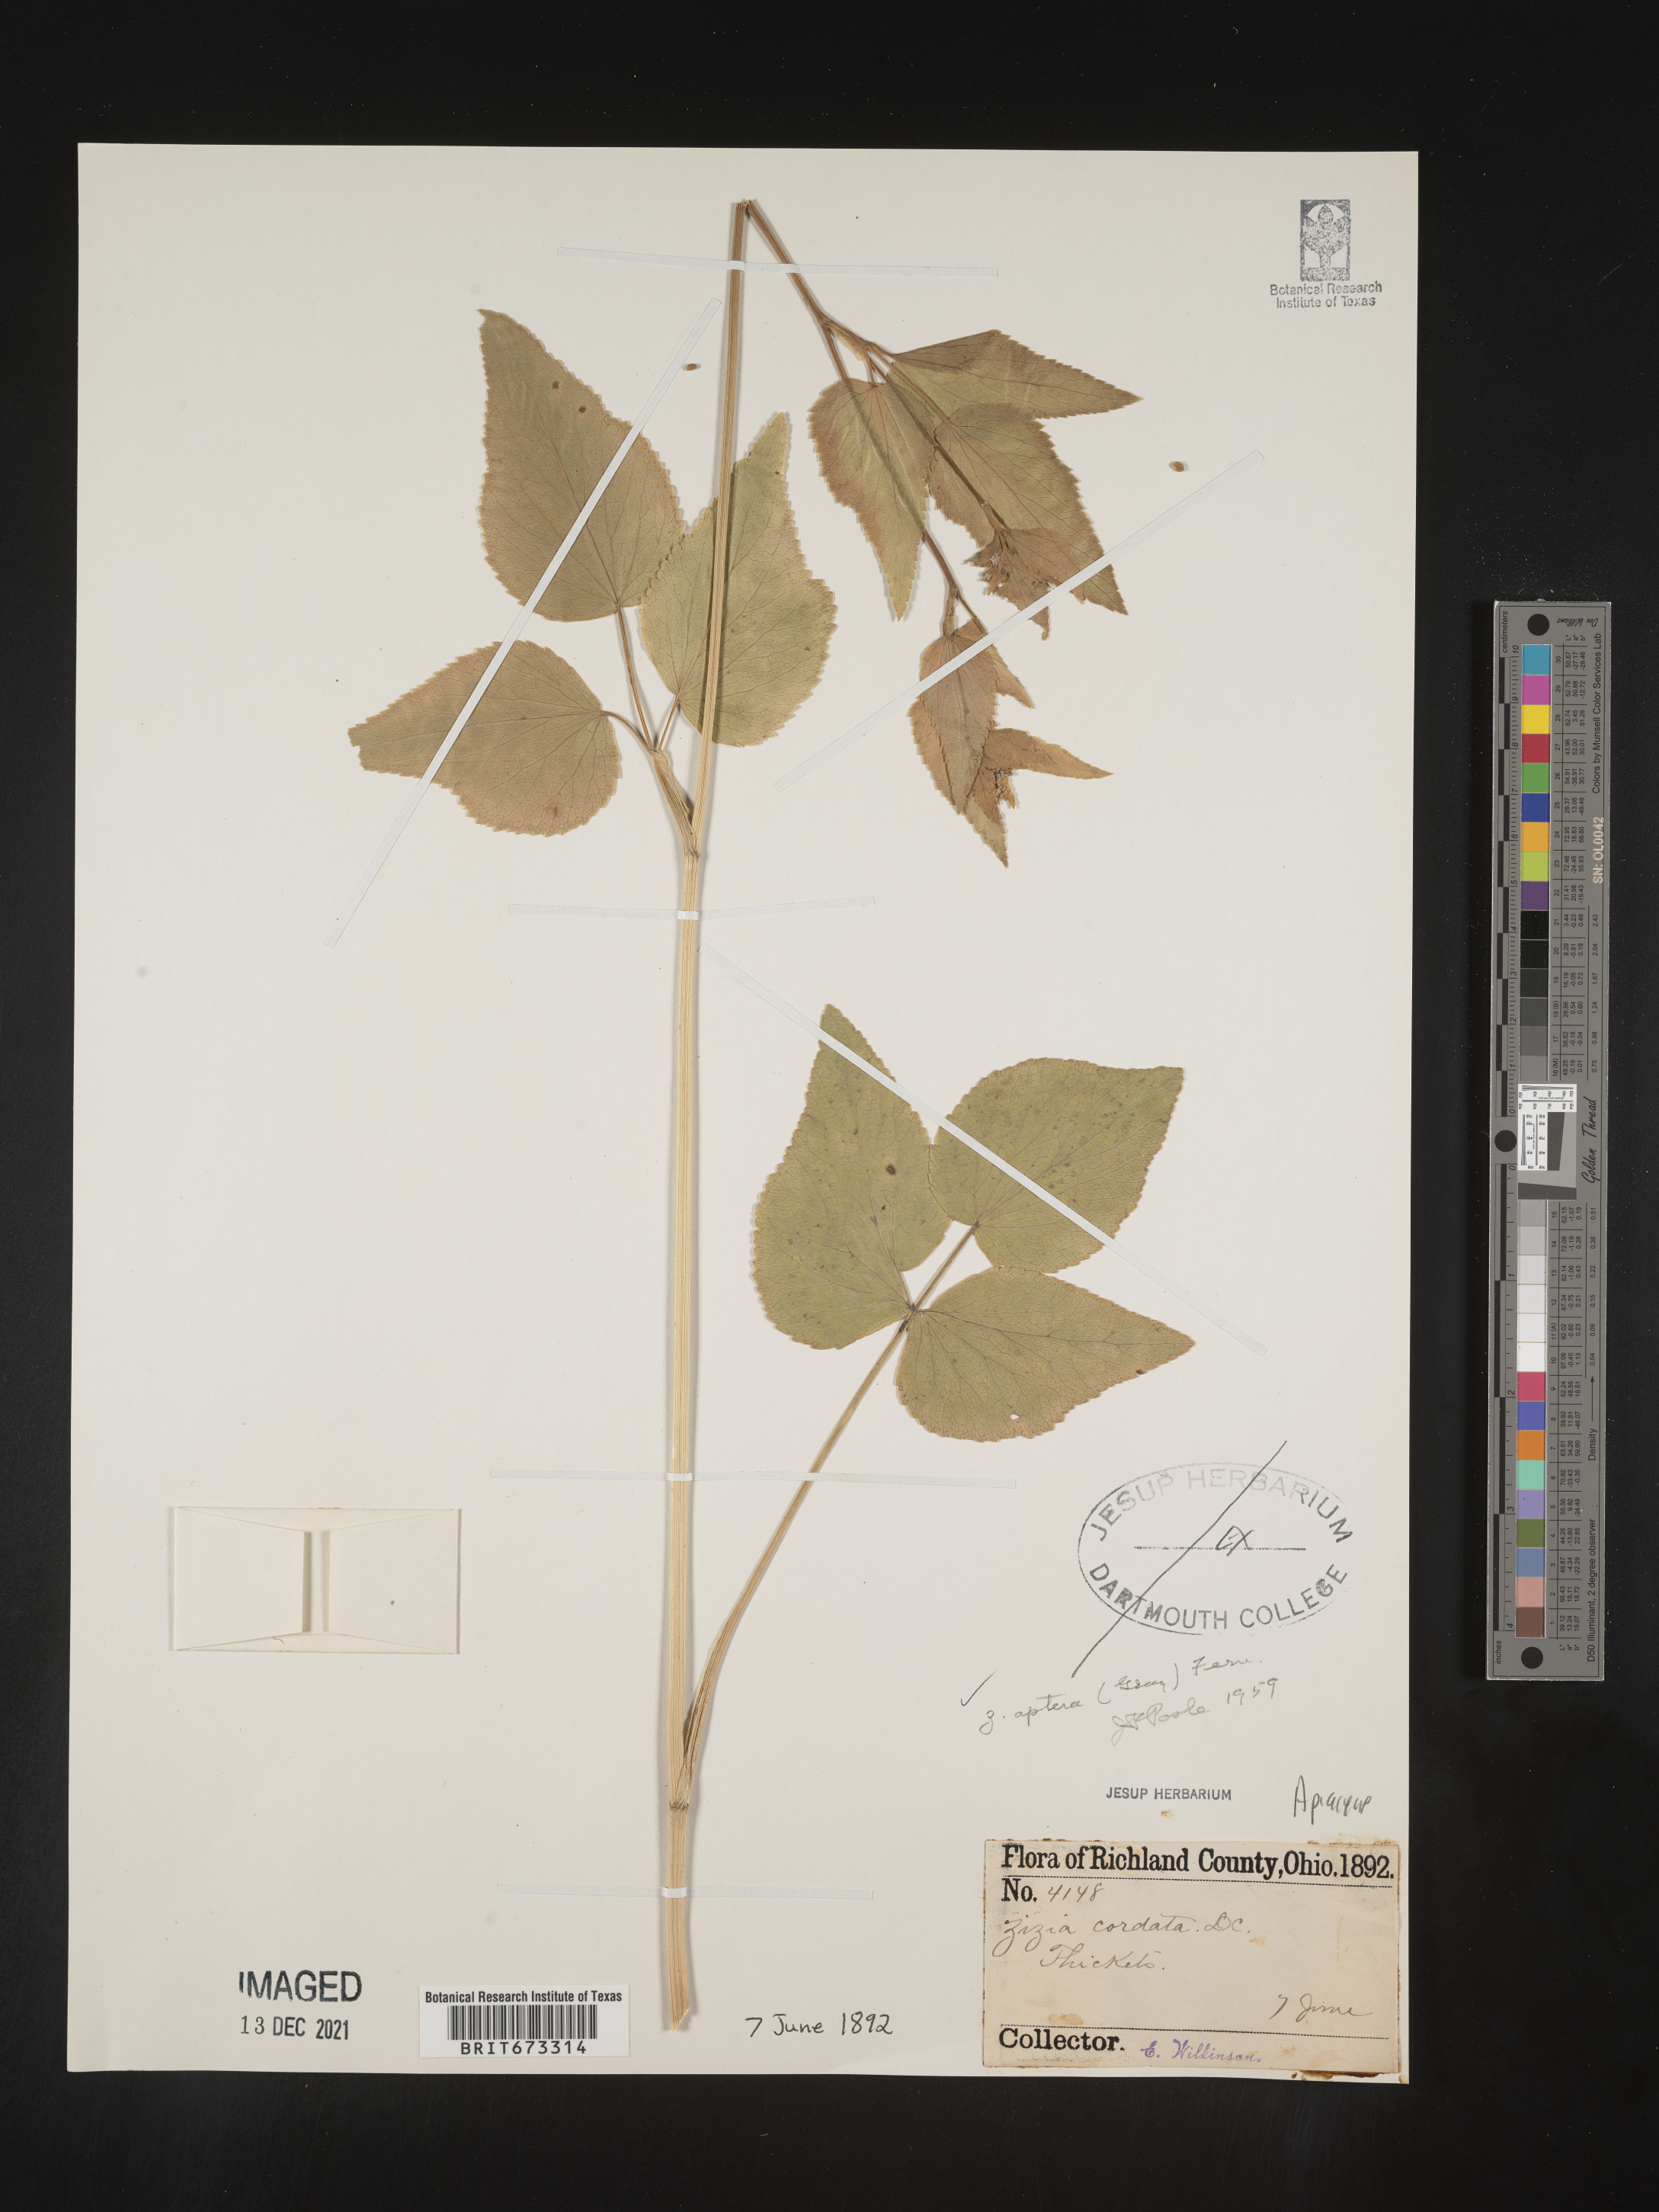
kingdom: Plantae
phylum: Tracheophyta
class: Magnoliopsida
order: Apiales
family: Apiaceae
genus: Zizia
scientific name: Zizia aptera
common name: Heart-leaved alexanders
